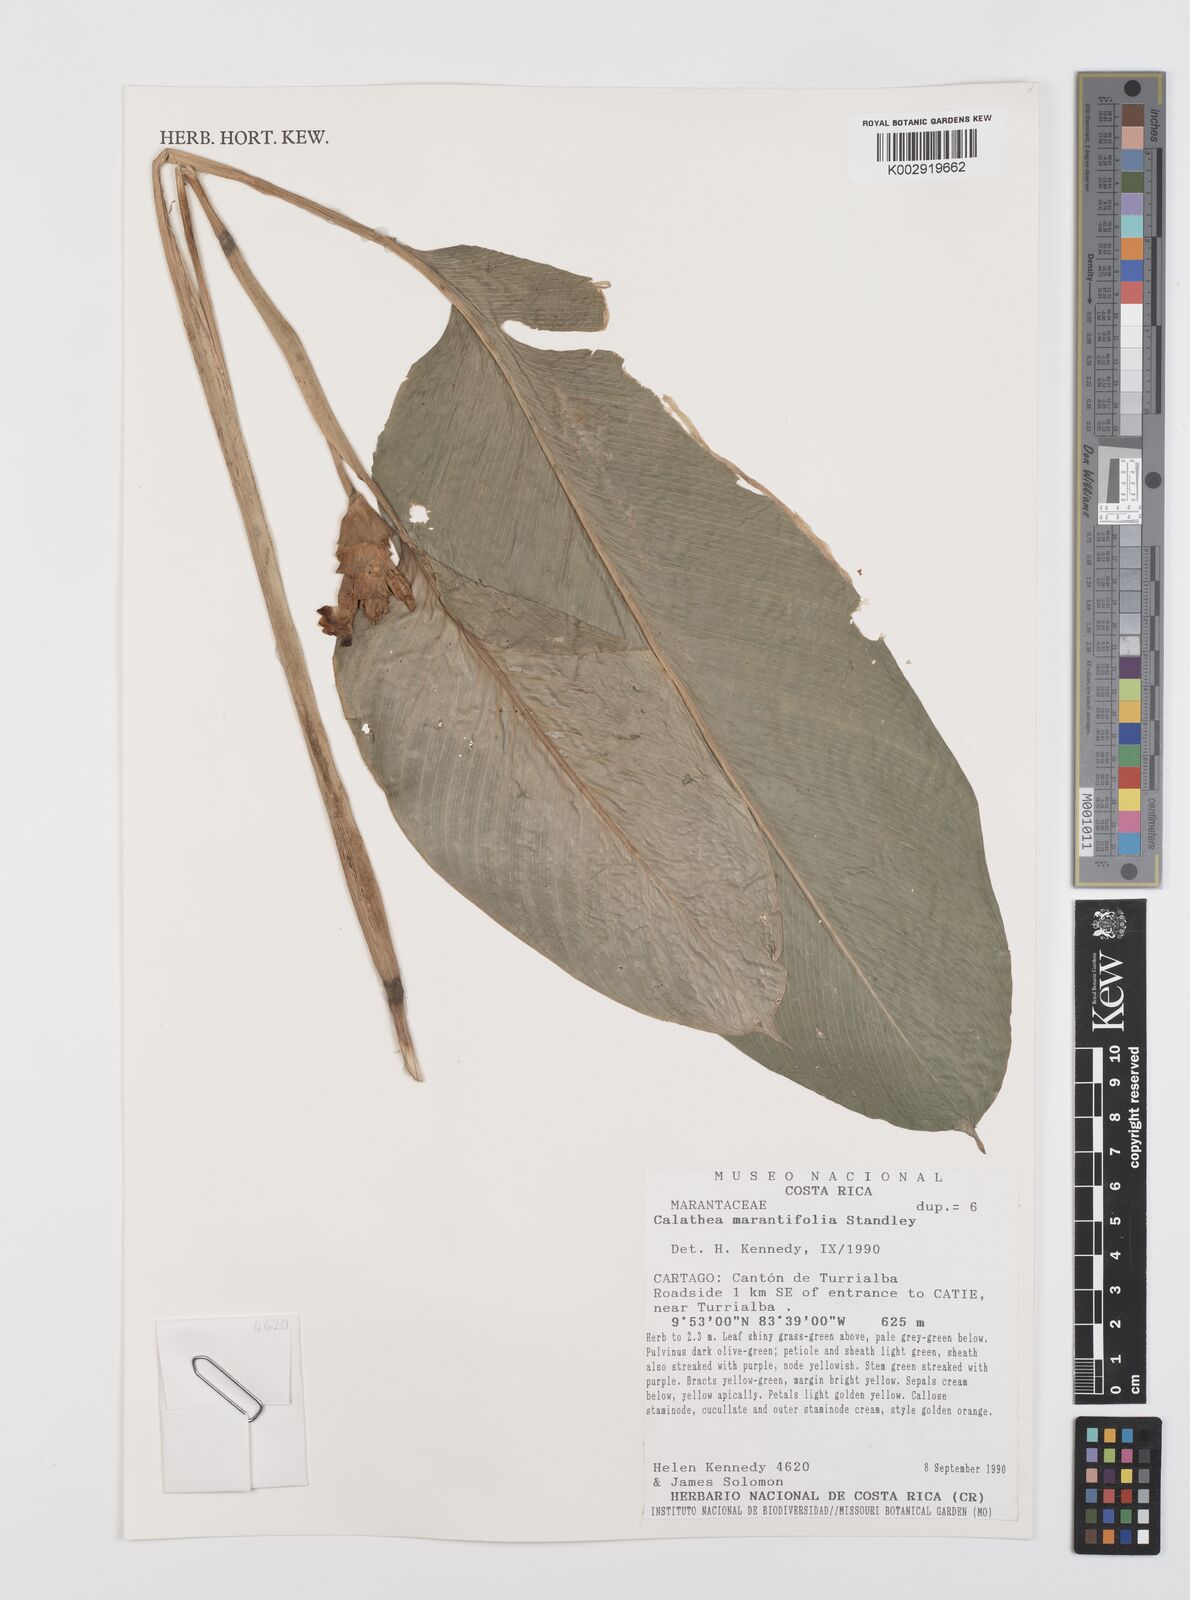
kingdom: Plantae
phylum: Tracheophyta
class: Liliopsida
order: Zingiberales
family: Marantaceae
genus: Goeppertia
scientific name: Goeppertia marantifolia
